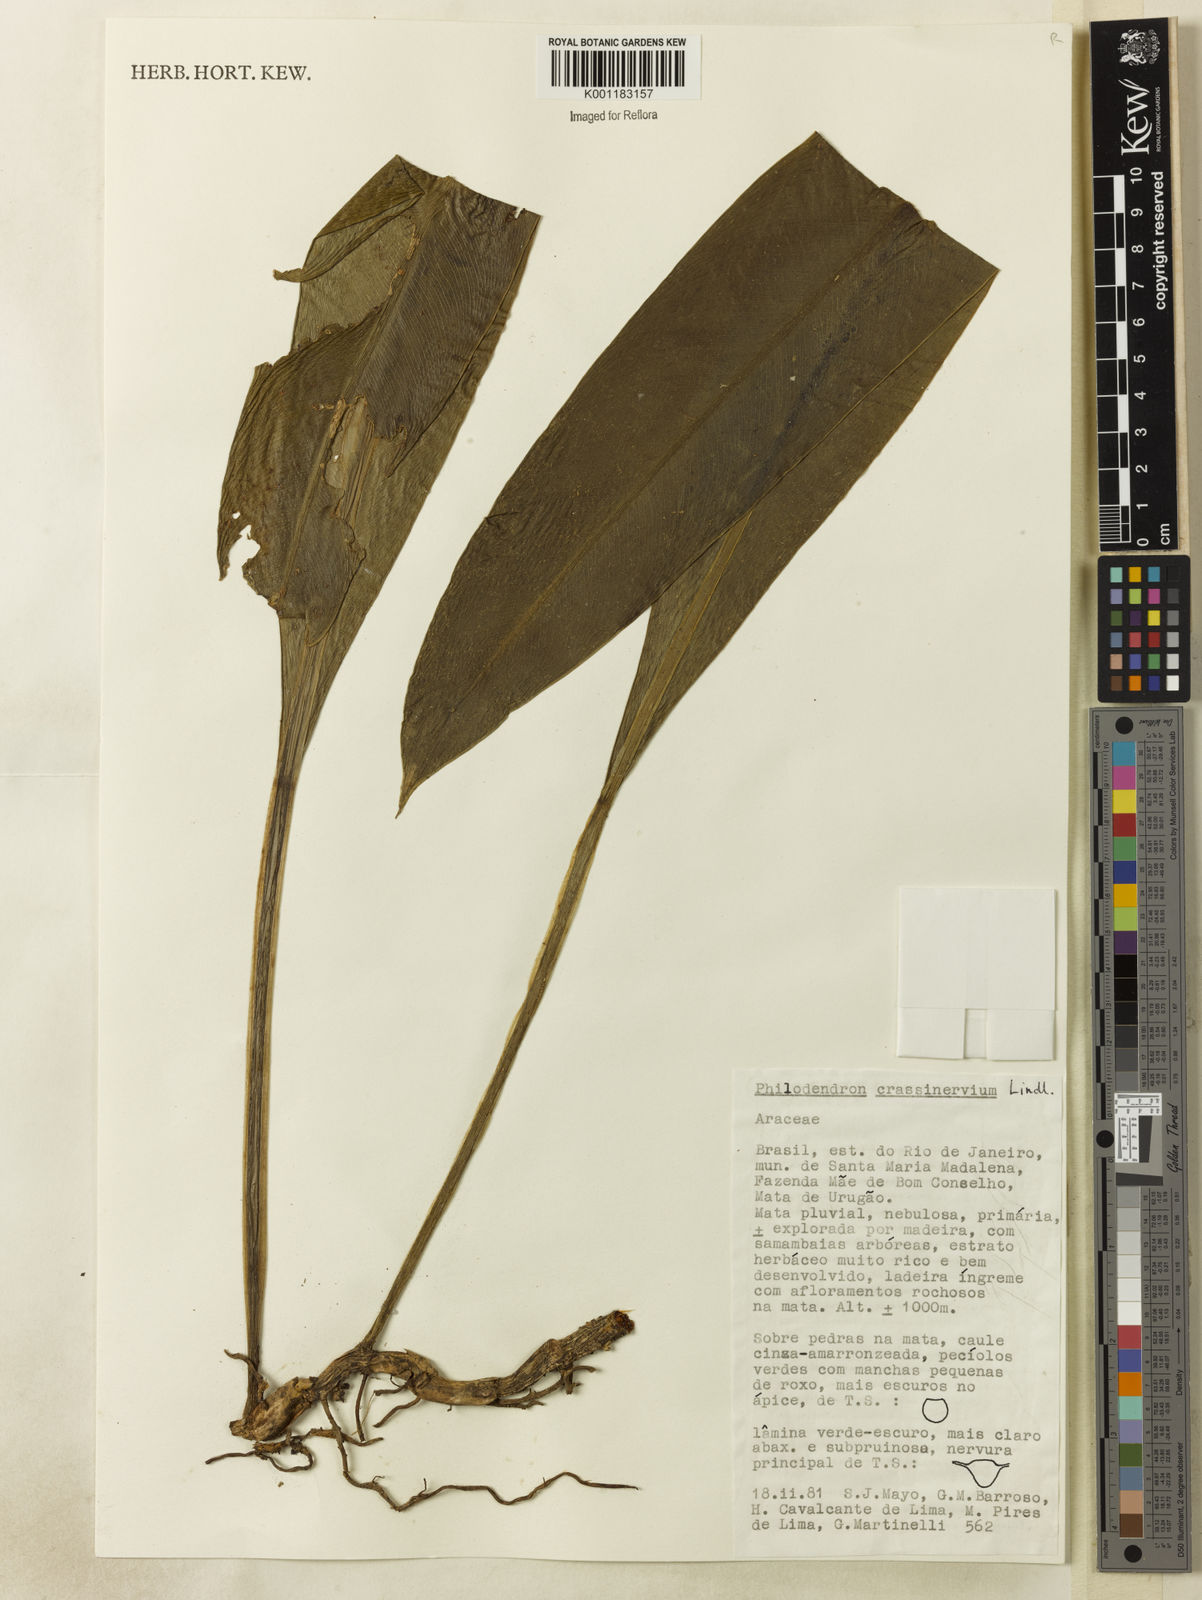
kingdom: Plantae
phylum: Tracheophyta
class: Liliopsida
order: Alismatales
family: Araceae
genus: Philodendron
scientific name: Philodendron crassinervium
